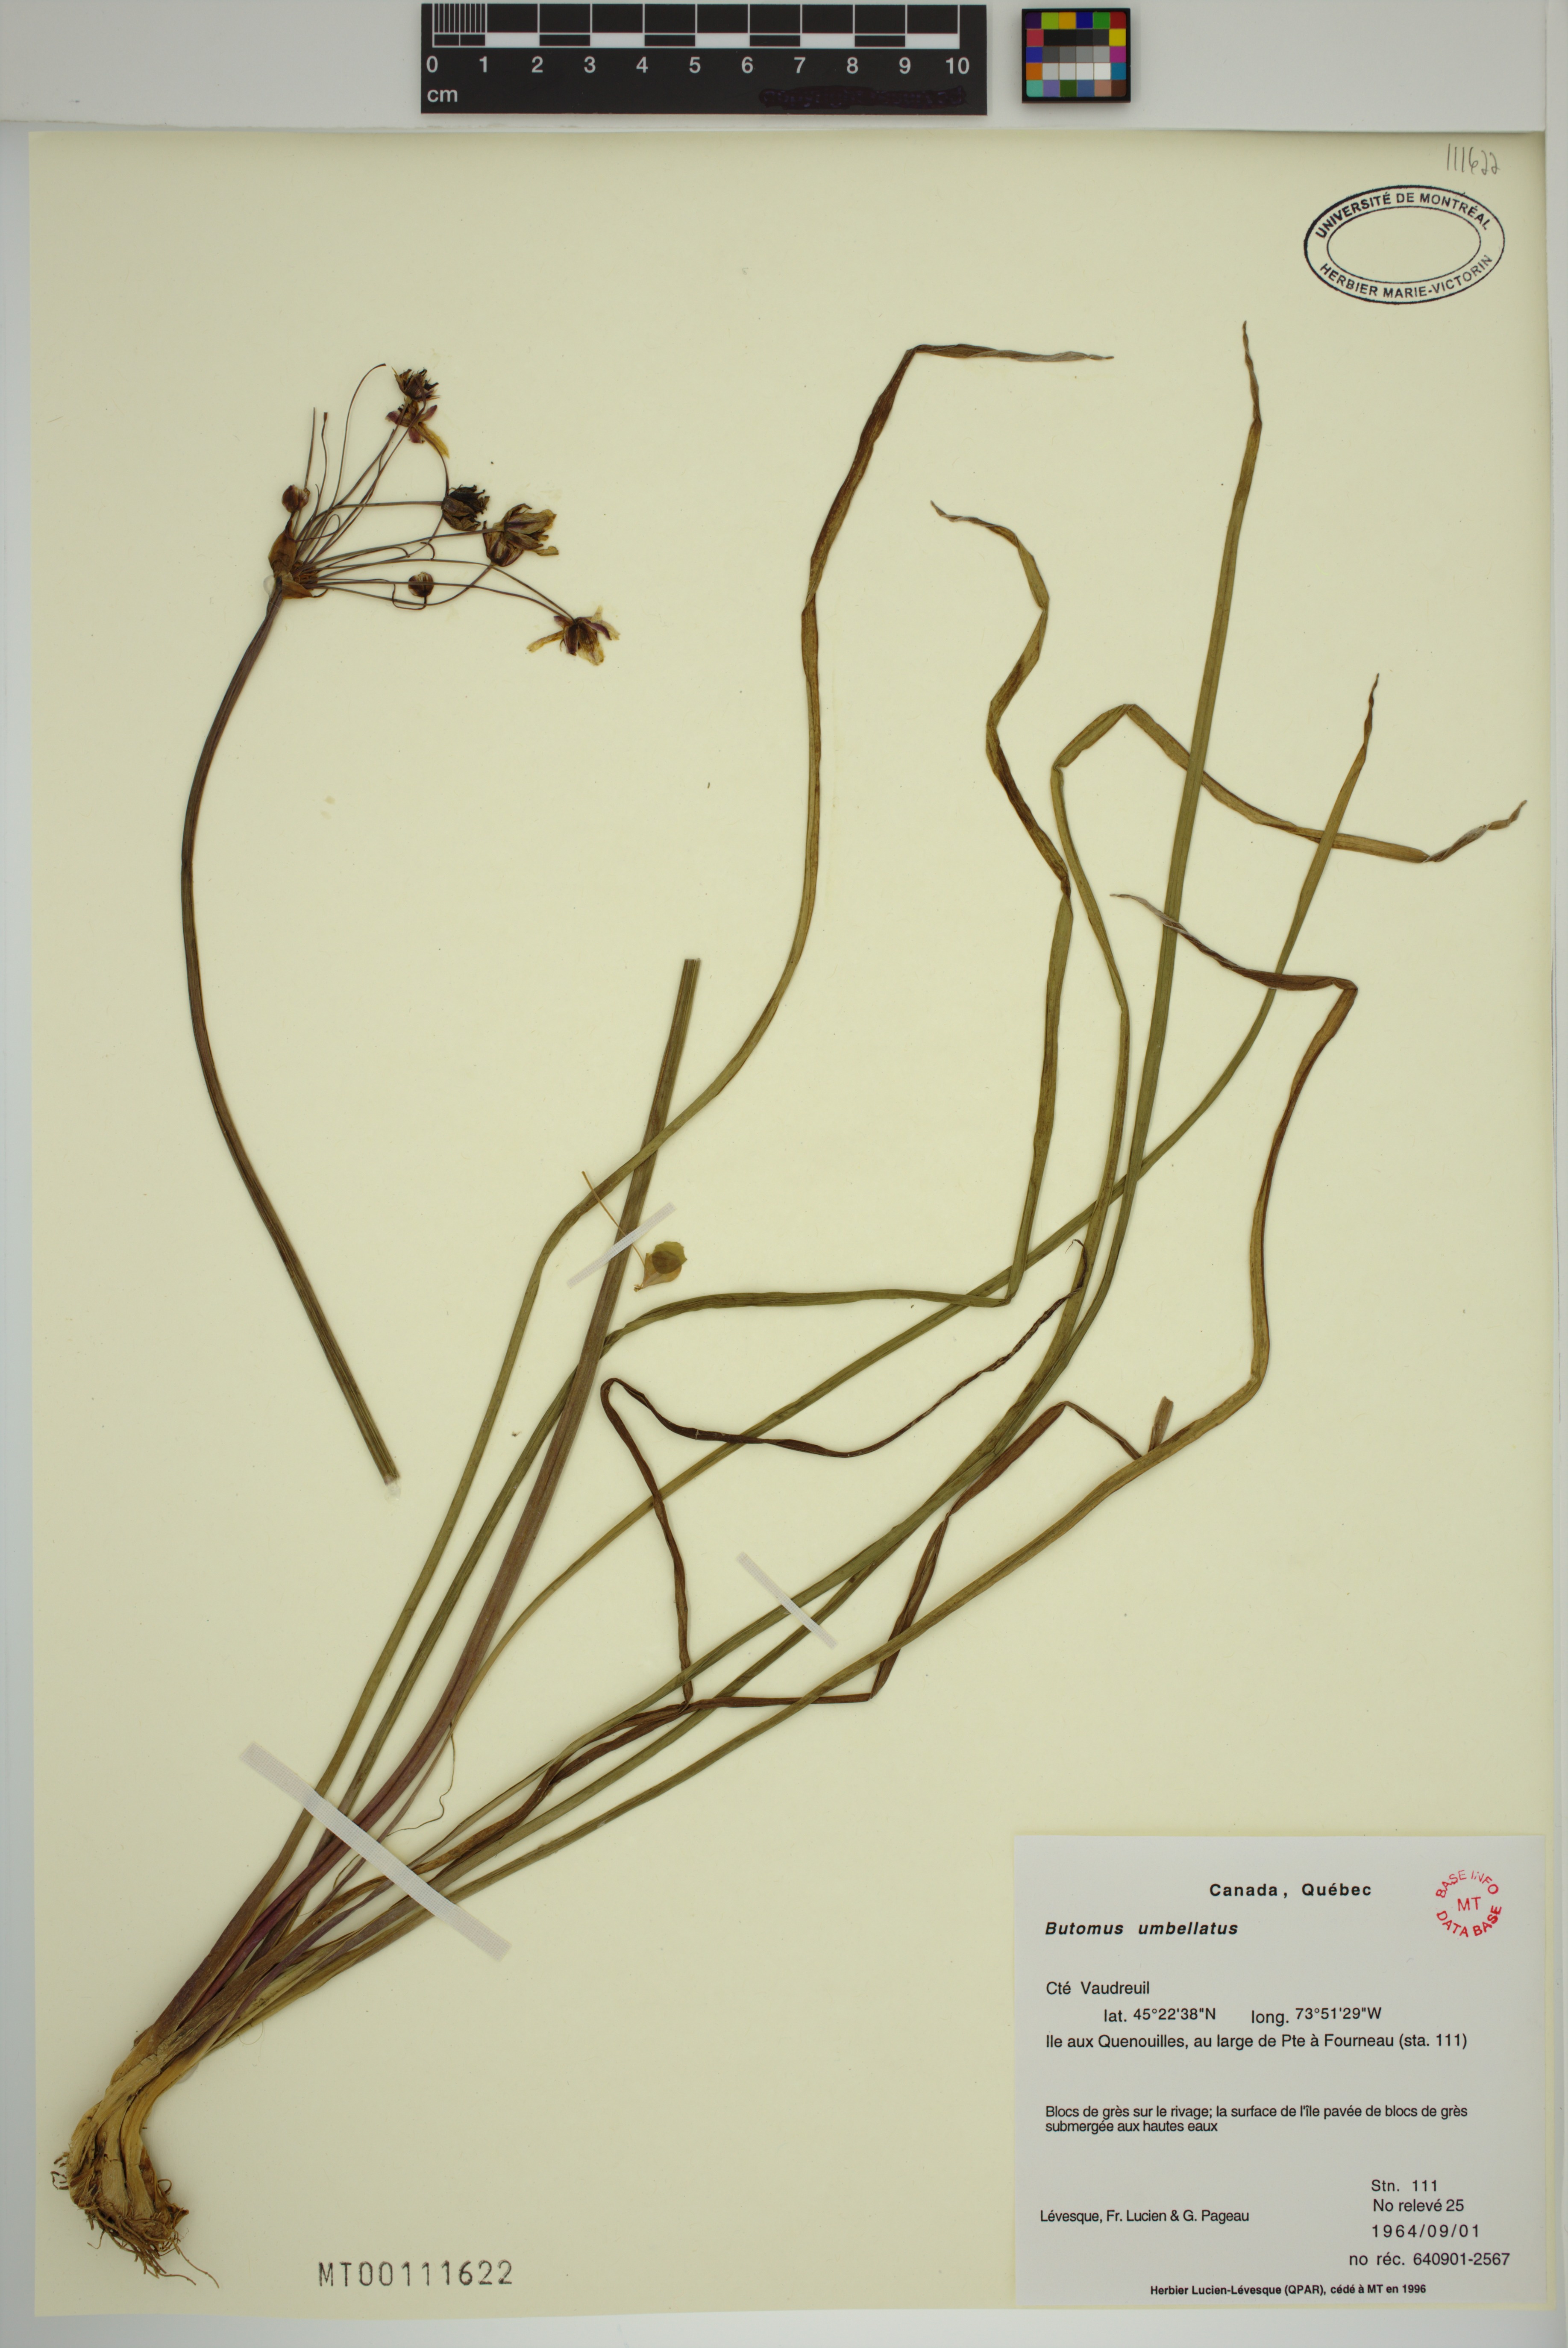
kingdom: Plantae
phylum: Tracheophyta
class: Liliopsida
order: Alismatales
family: Butomaceae
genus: Butomus
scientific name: Butomus umbellatus
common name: Flowering-rush
